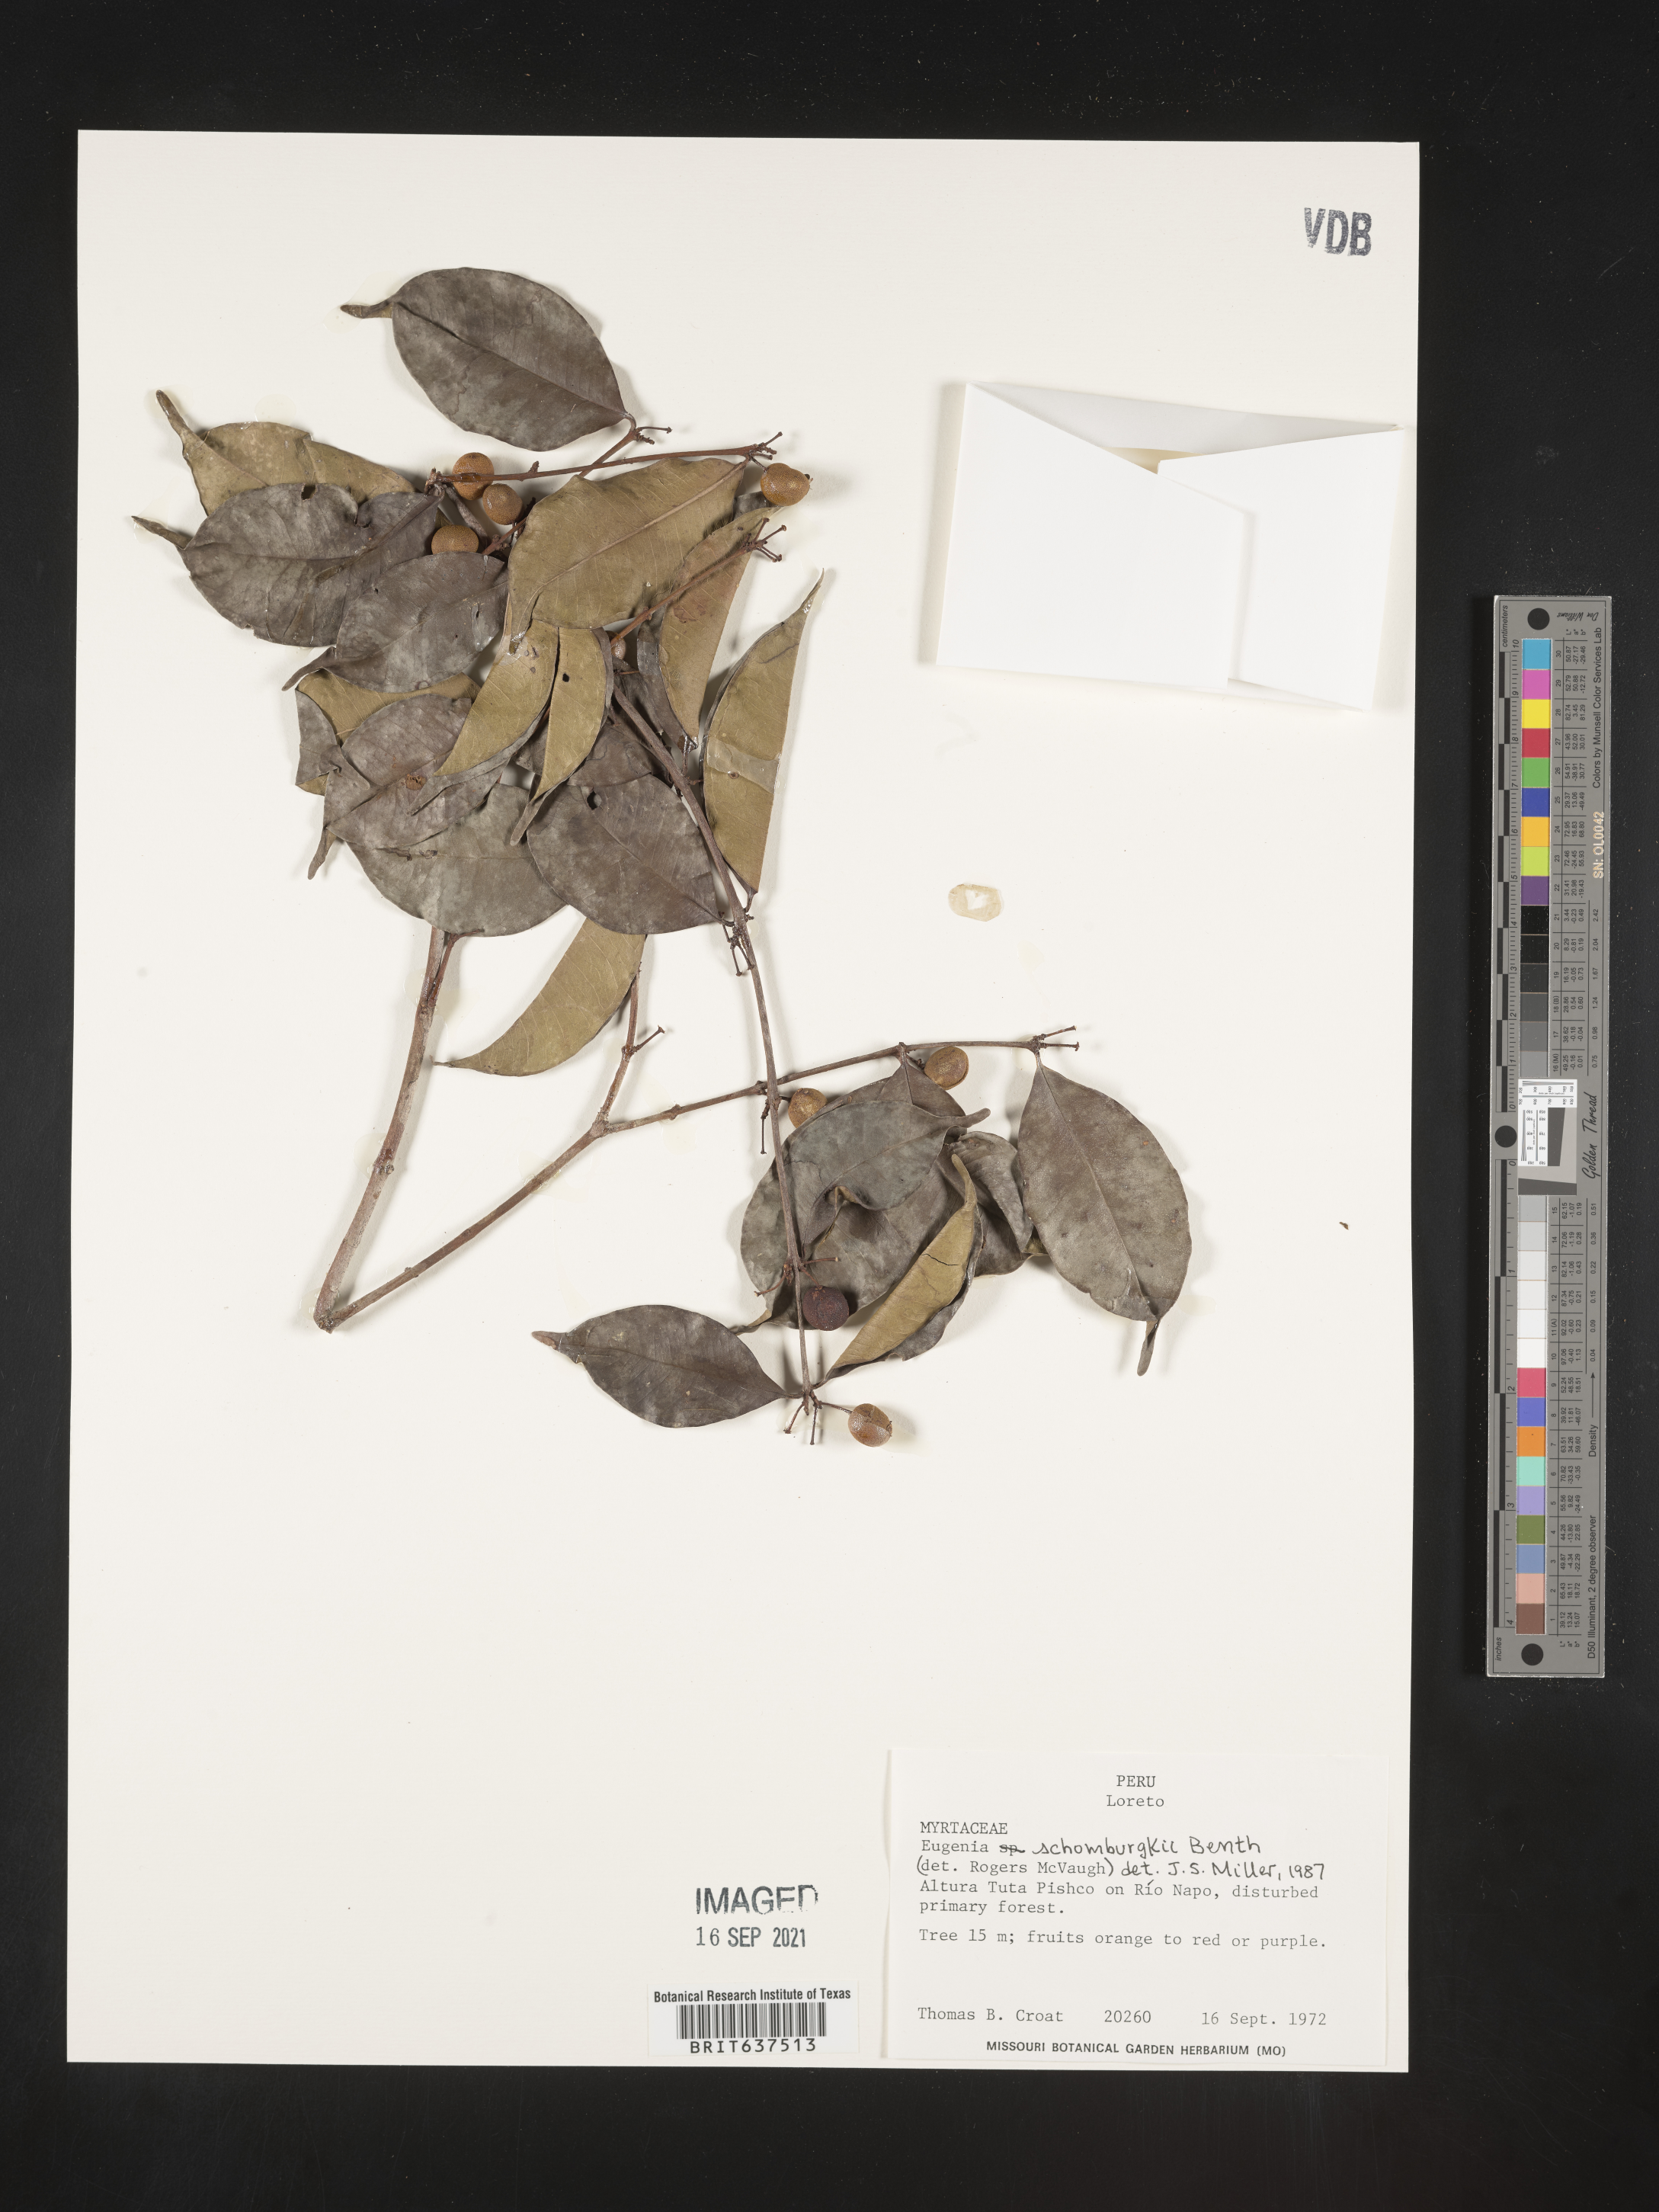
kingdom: Plantae
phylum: Tracheophyta
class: Magnoliopsida
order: Myrtales
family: Myrtaceae
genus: Eugenia
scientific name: Eugenia
